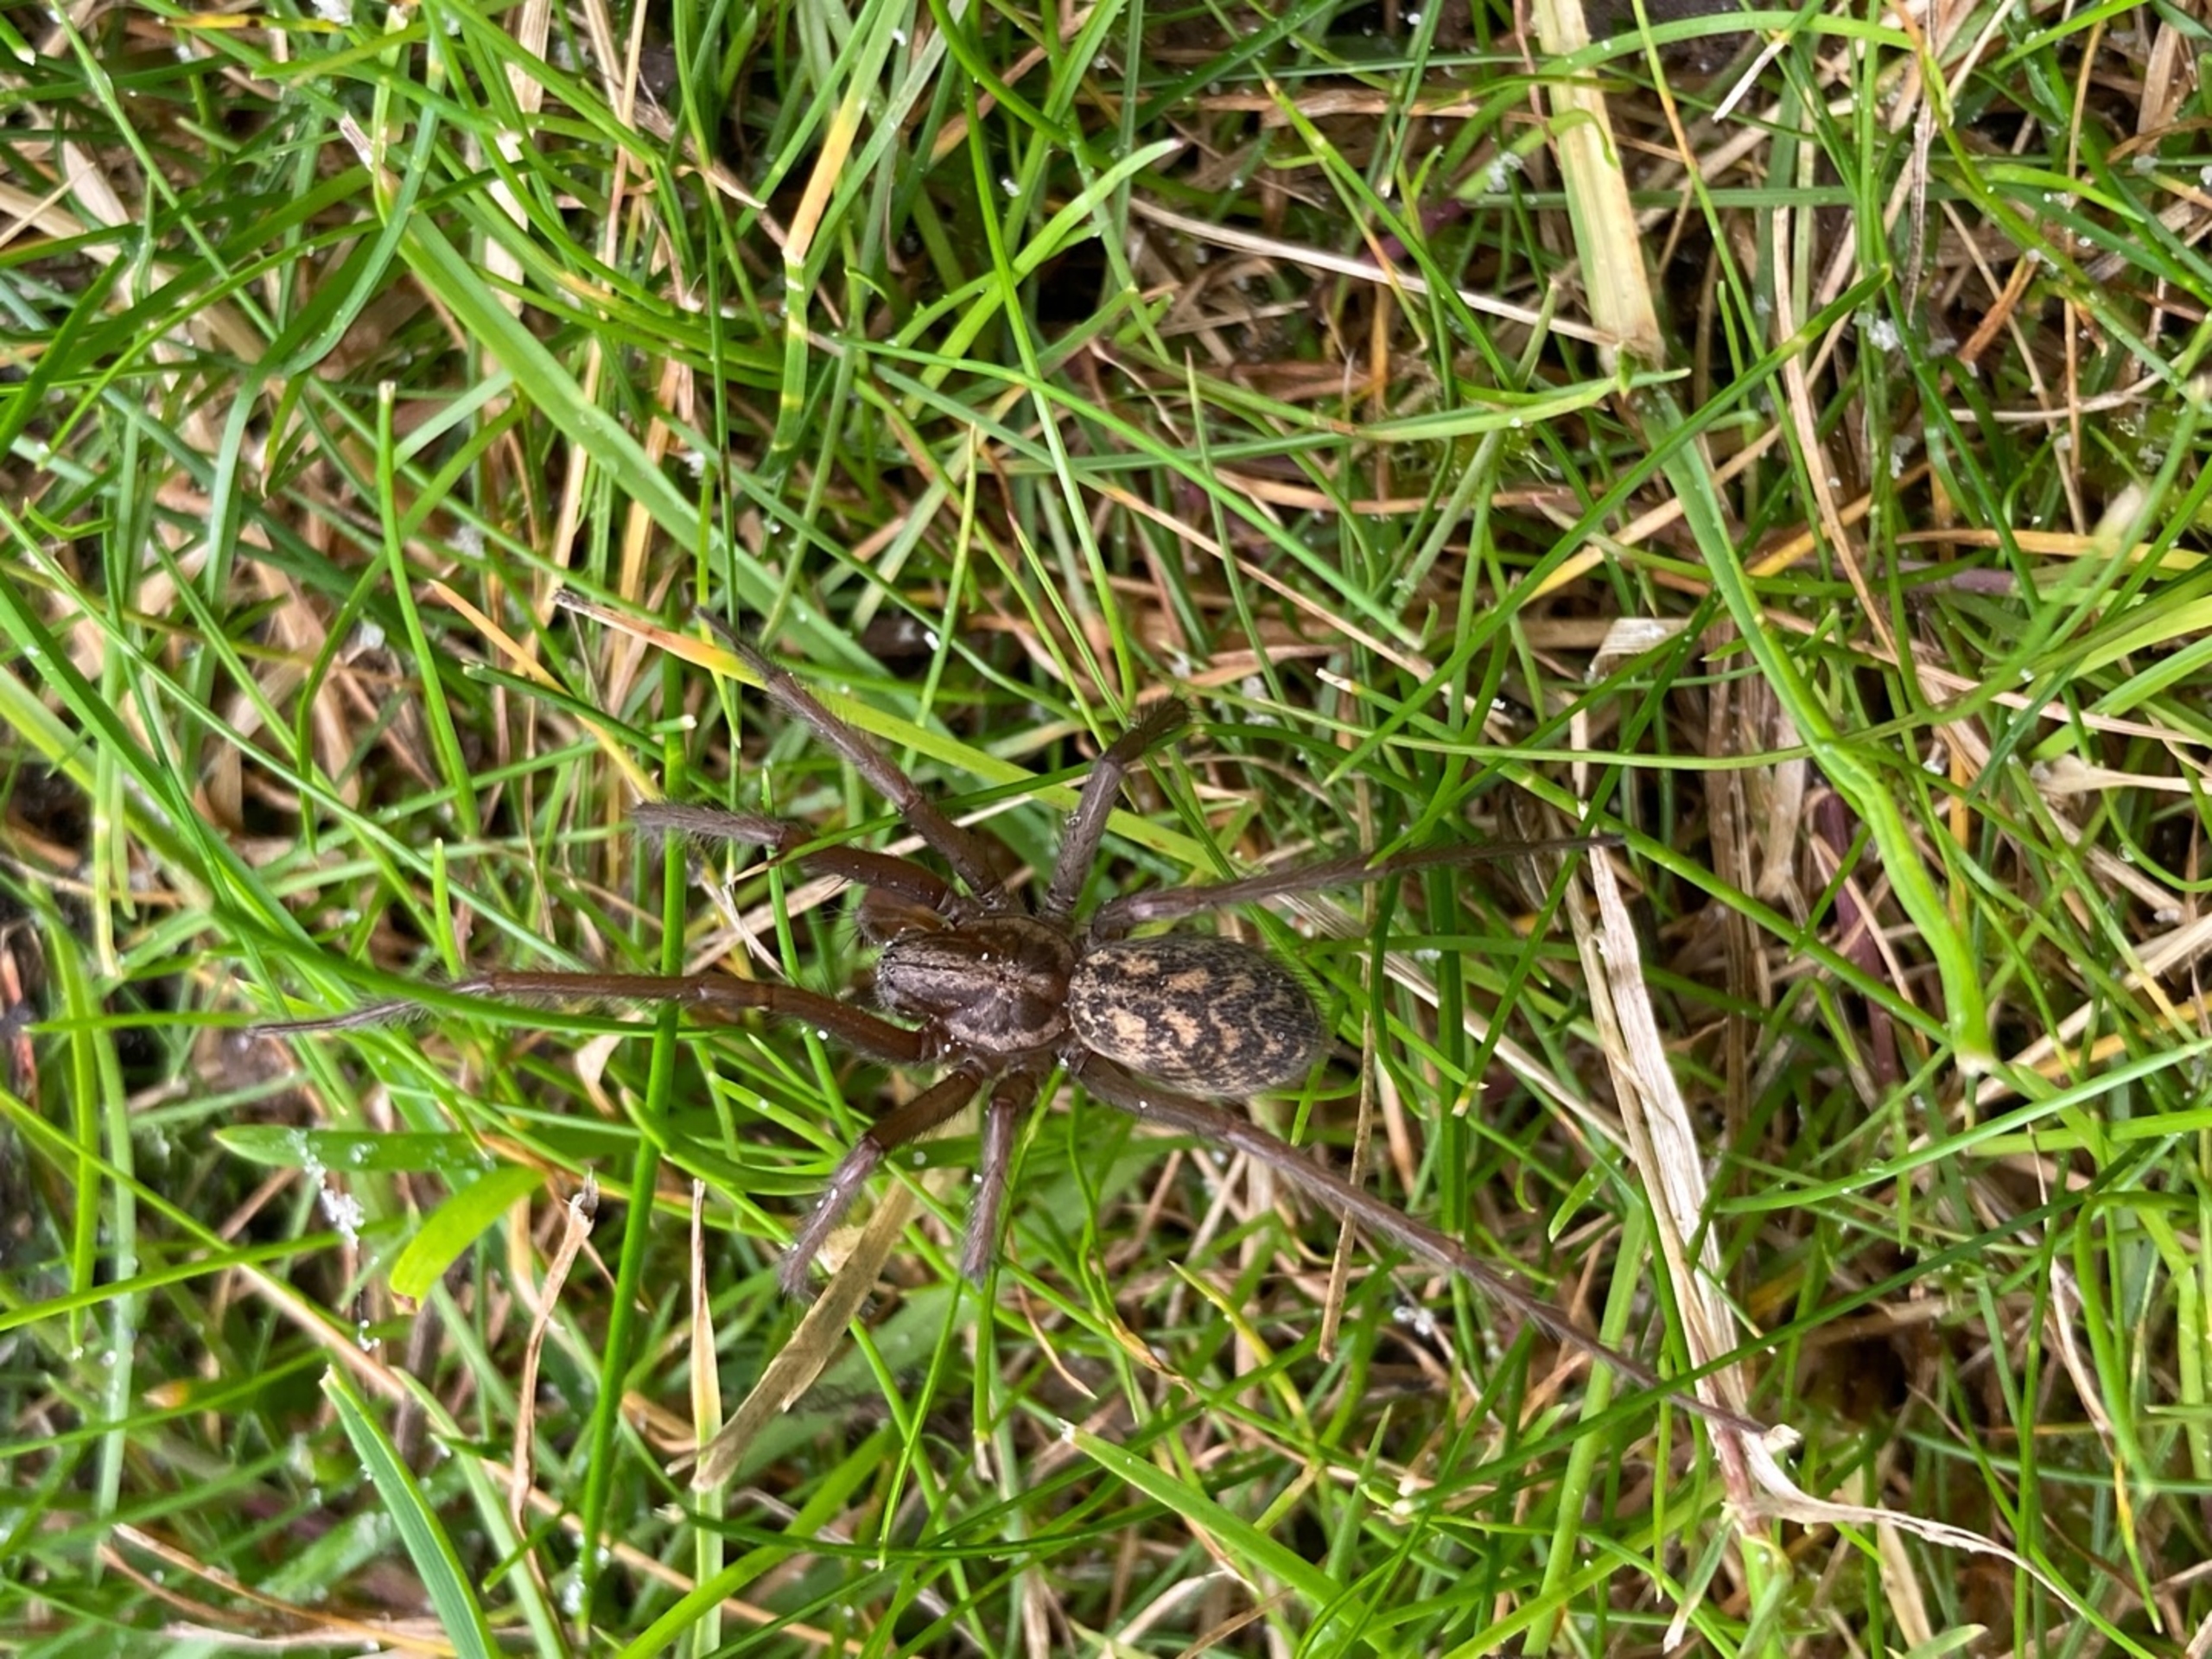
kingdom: Animalia
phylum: Arthropoda
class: Arachnida
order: Araneae
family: Agelenidae
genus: Eratigena
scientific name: Eratigena atrica
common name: Stor husedderkop
